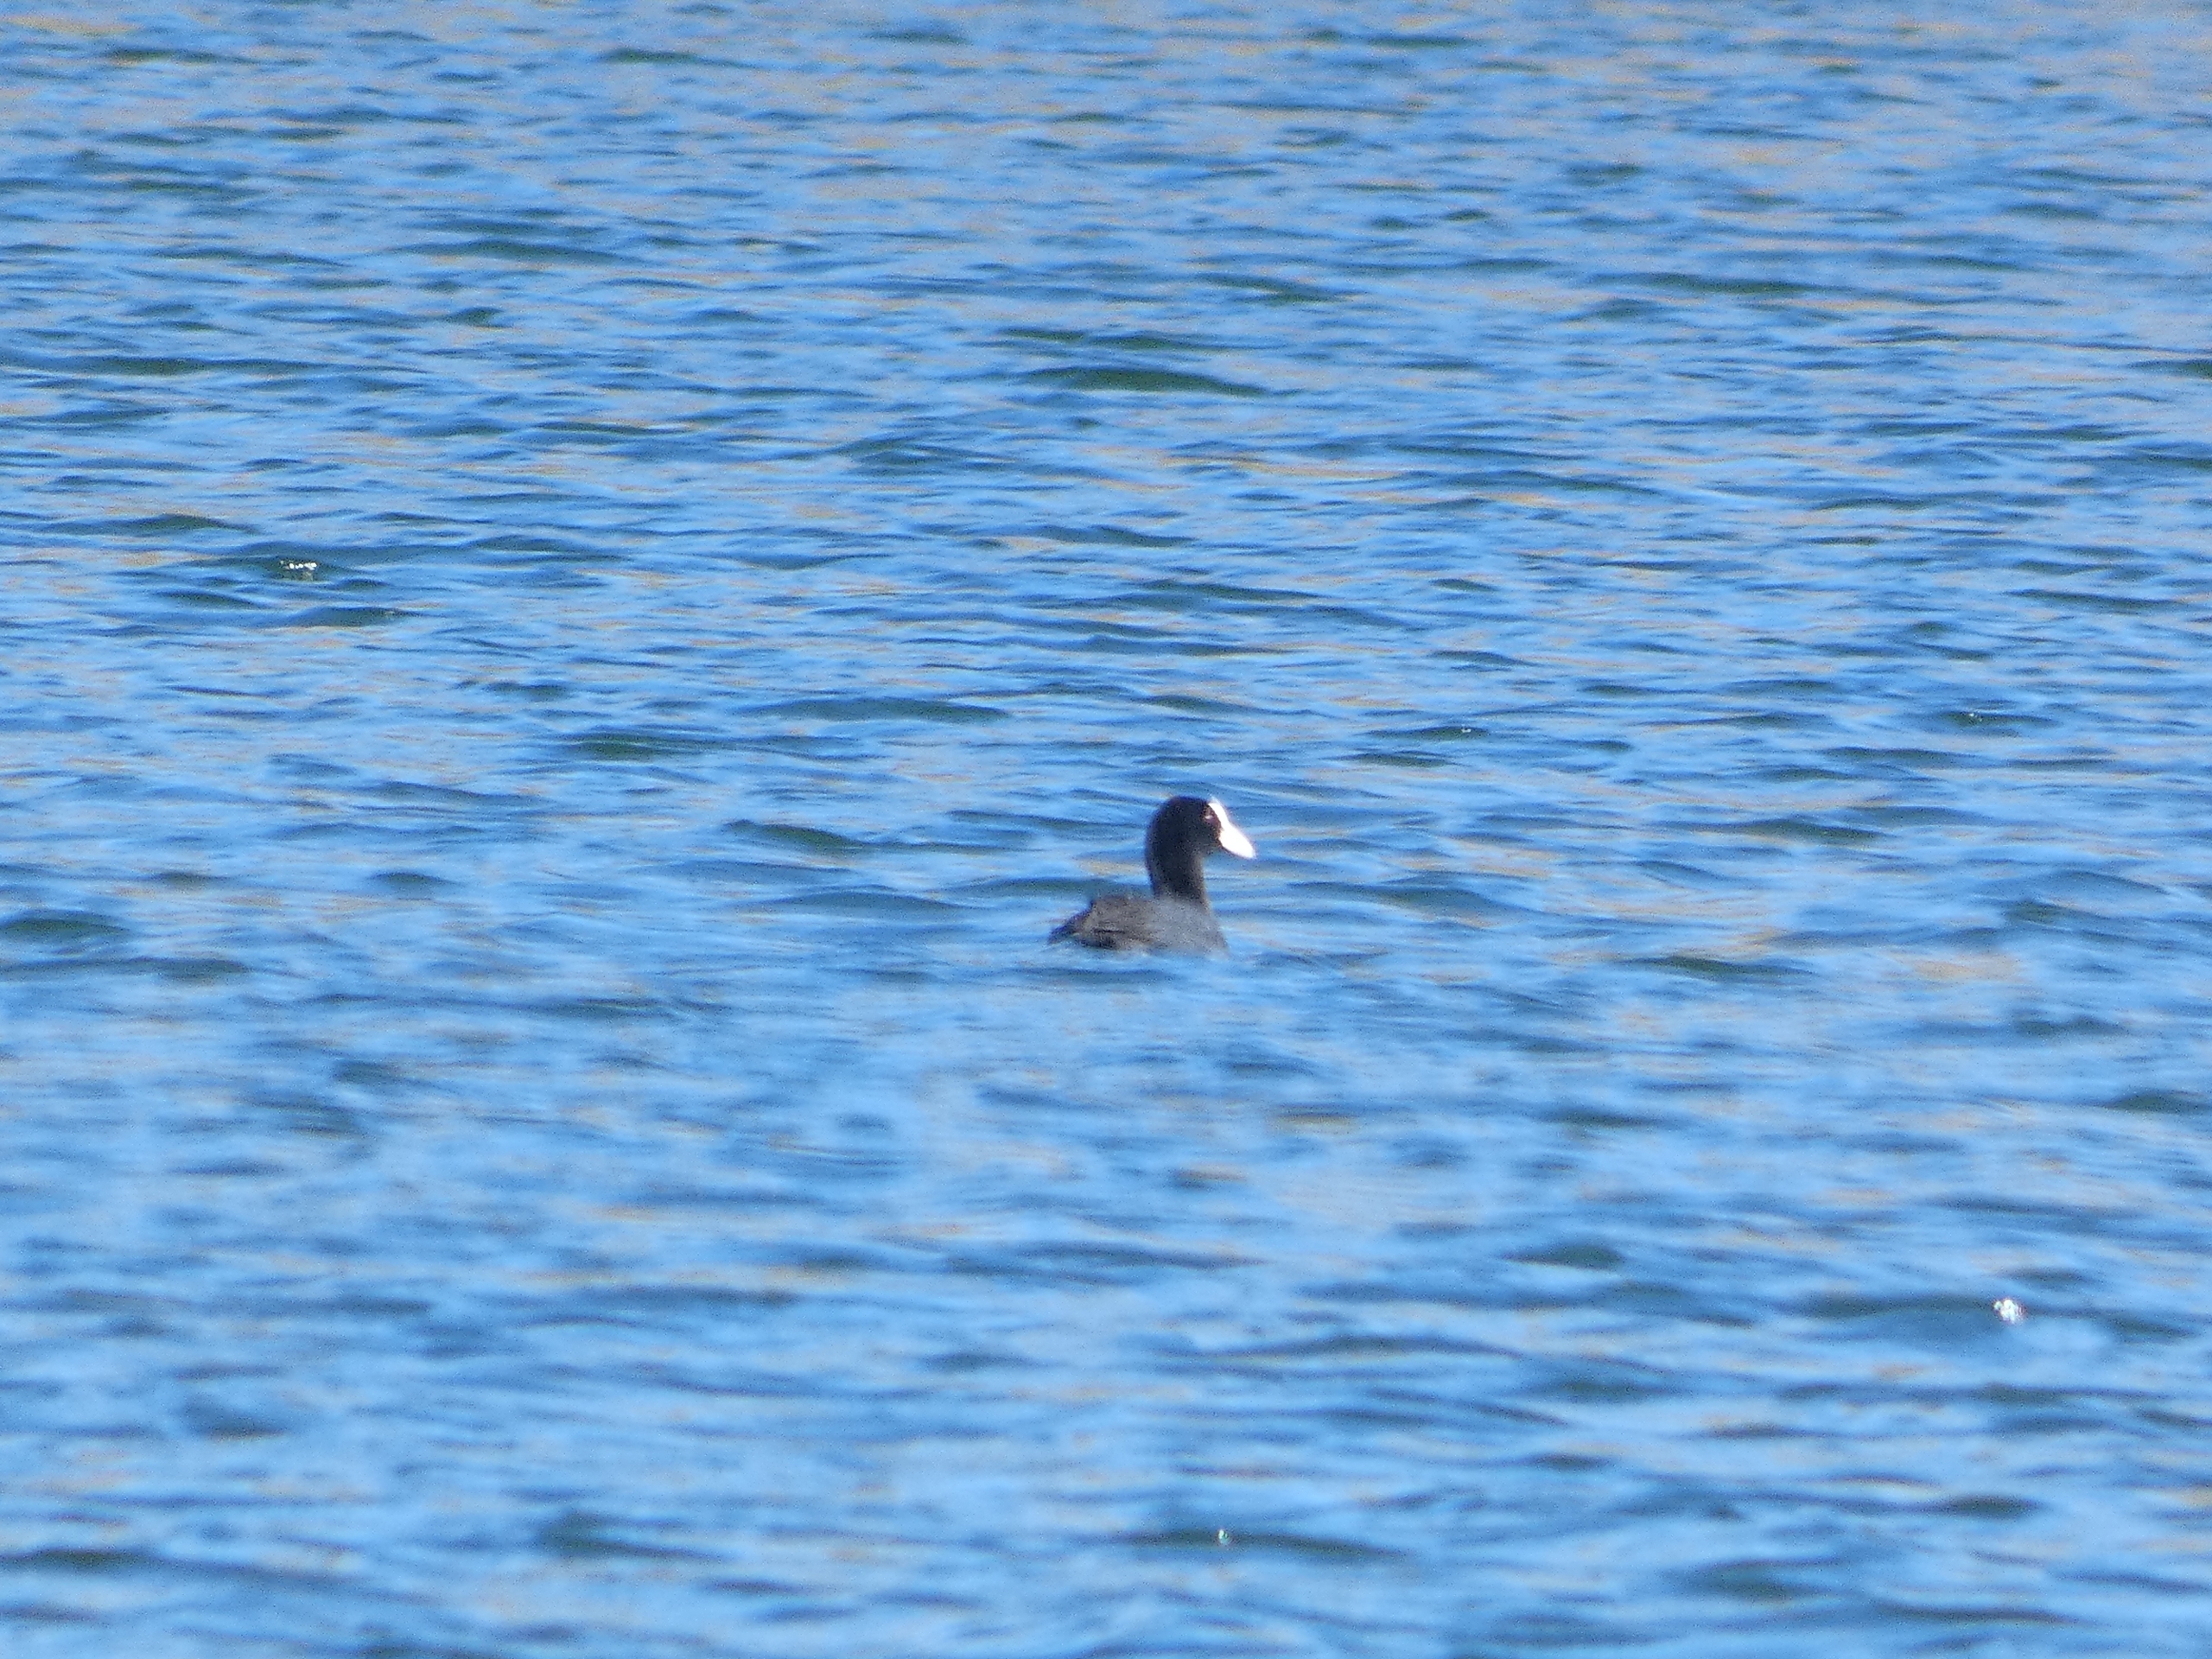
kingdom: Animalia
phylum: Chordata
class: Aves
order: Gruiformes
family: Rallidae
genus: Fulica
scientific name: Fulica atra
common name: Blishøne
